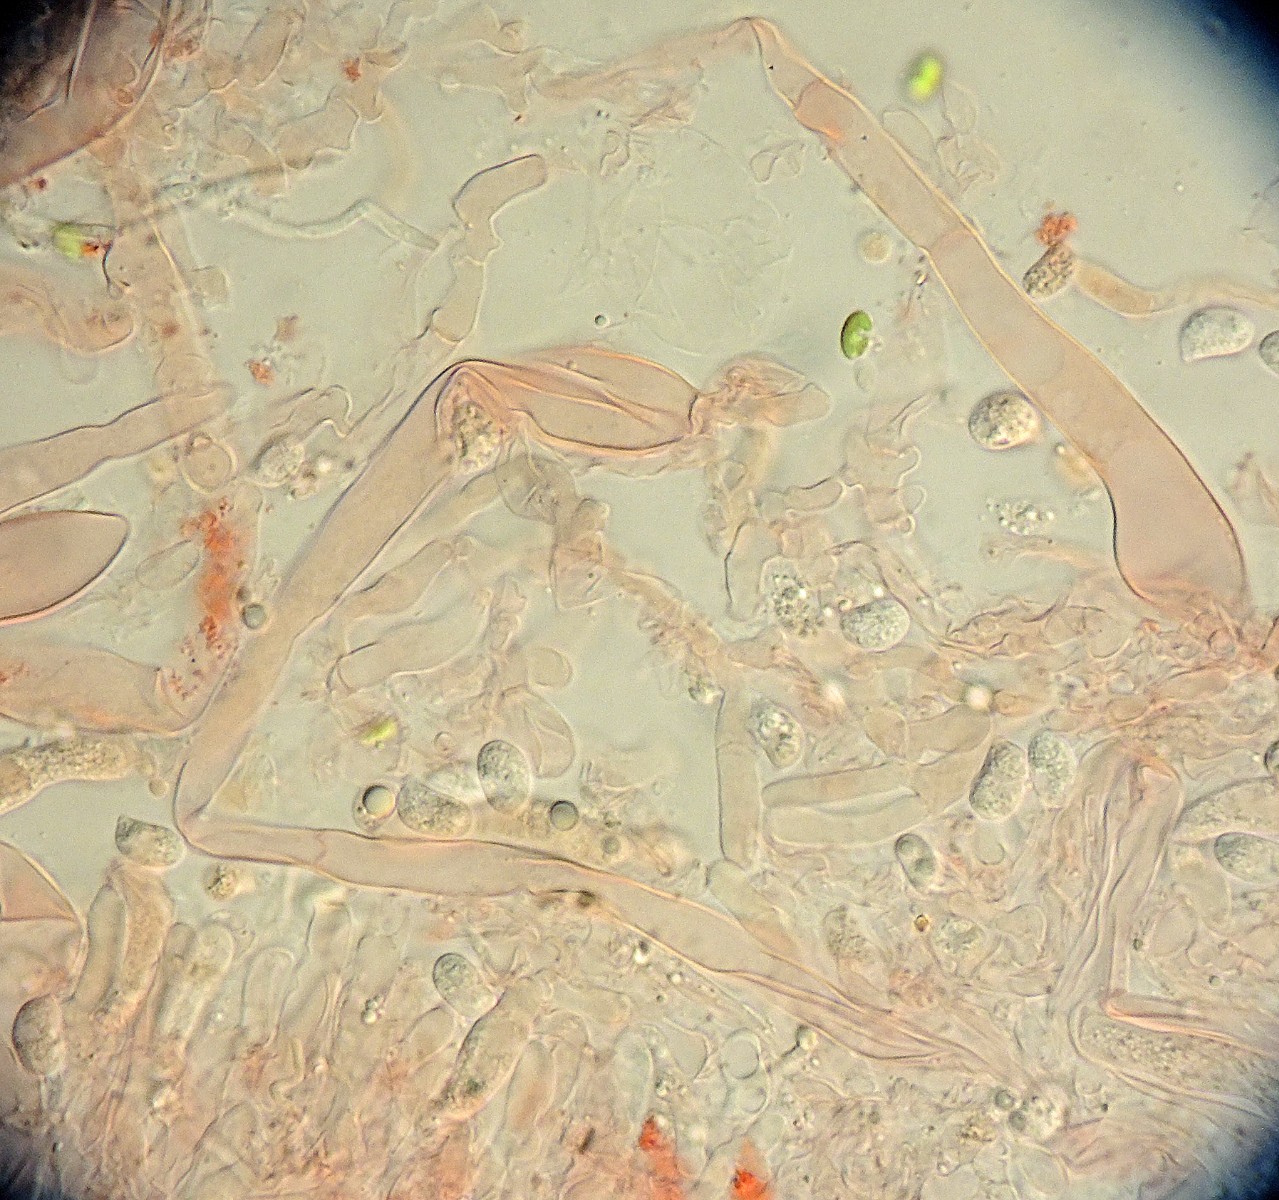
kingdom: Fungi
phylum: Basidiomycota
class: Agaricomycetes
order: Hymenochaetales
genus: Kurtia
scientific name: Kurtia argillacea
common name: Kurts kalkskind
